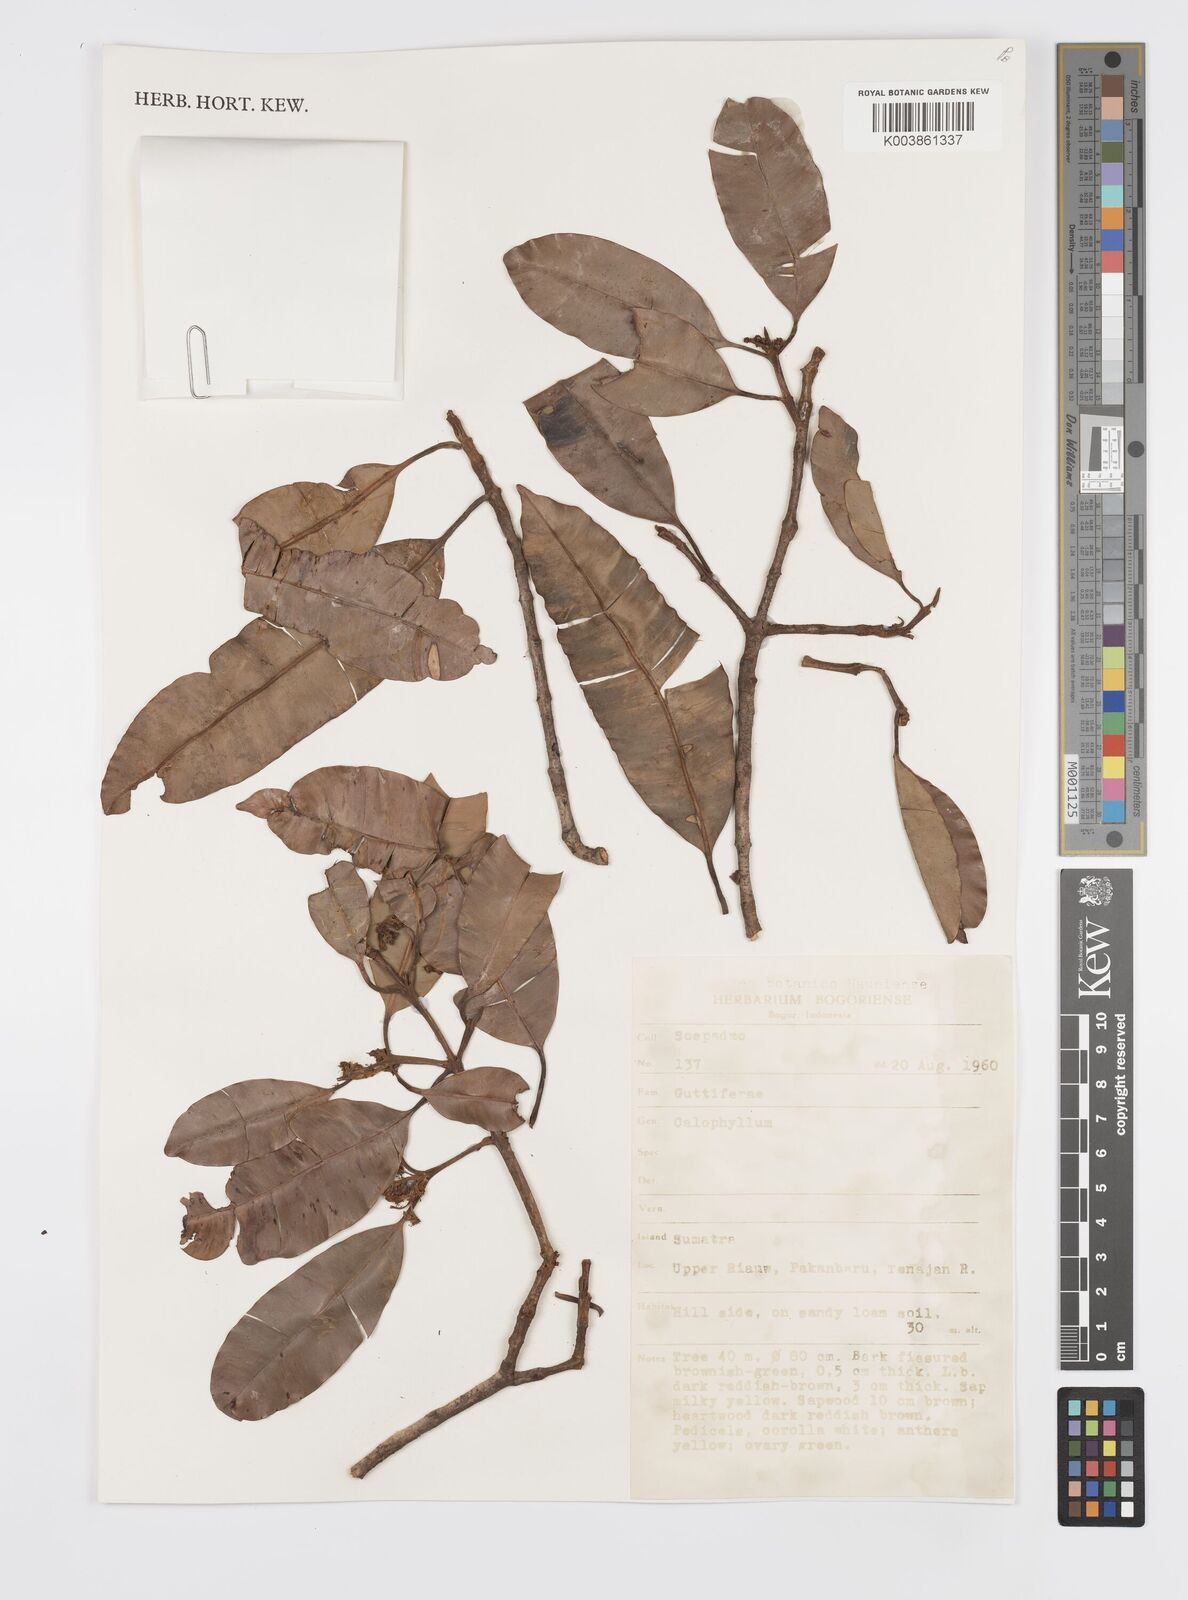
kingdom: Plantae
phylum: Tracheophyta
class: Magnoliopsida
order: Malpighiales
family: Clusiaceae
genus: Garcinia
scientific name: Garcinia
